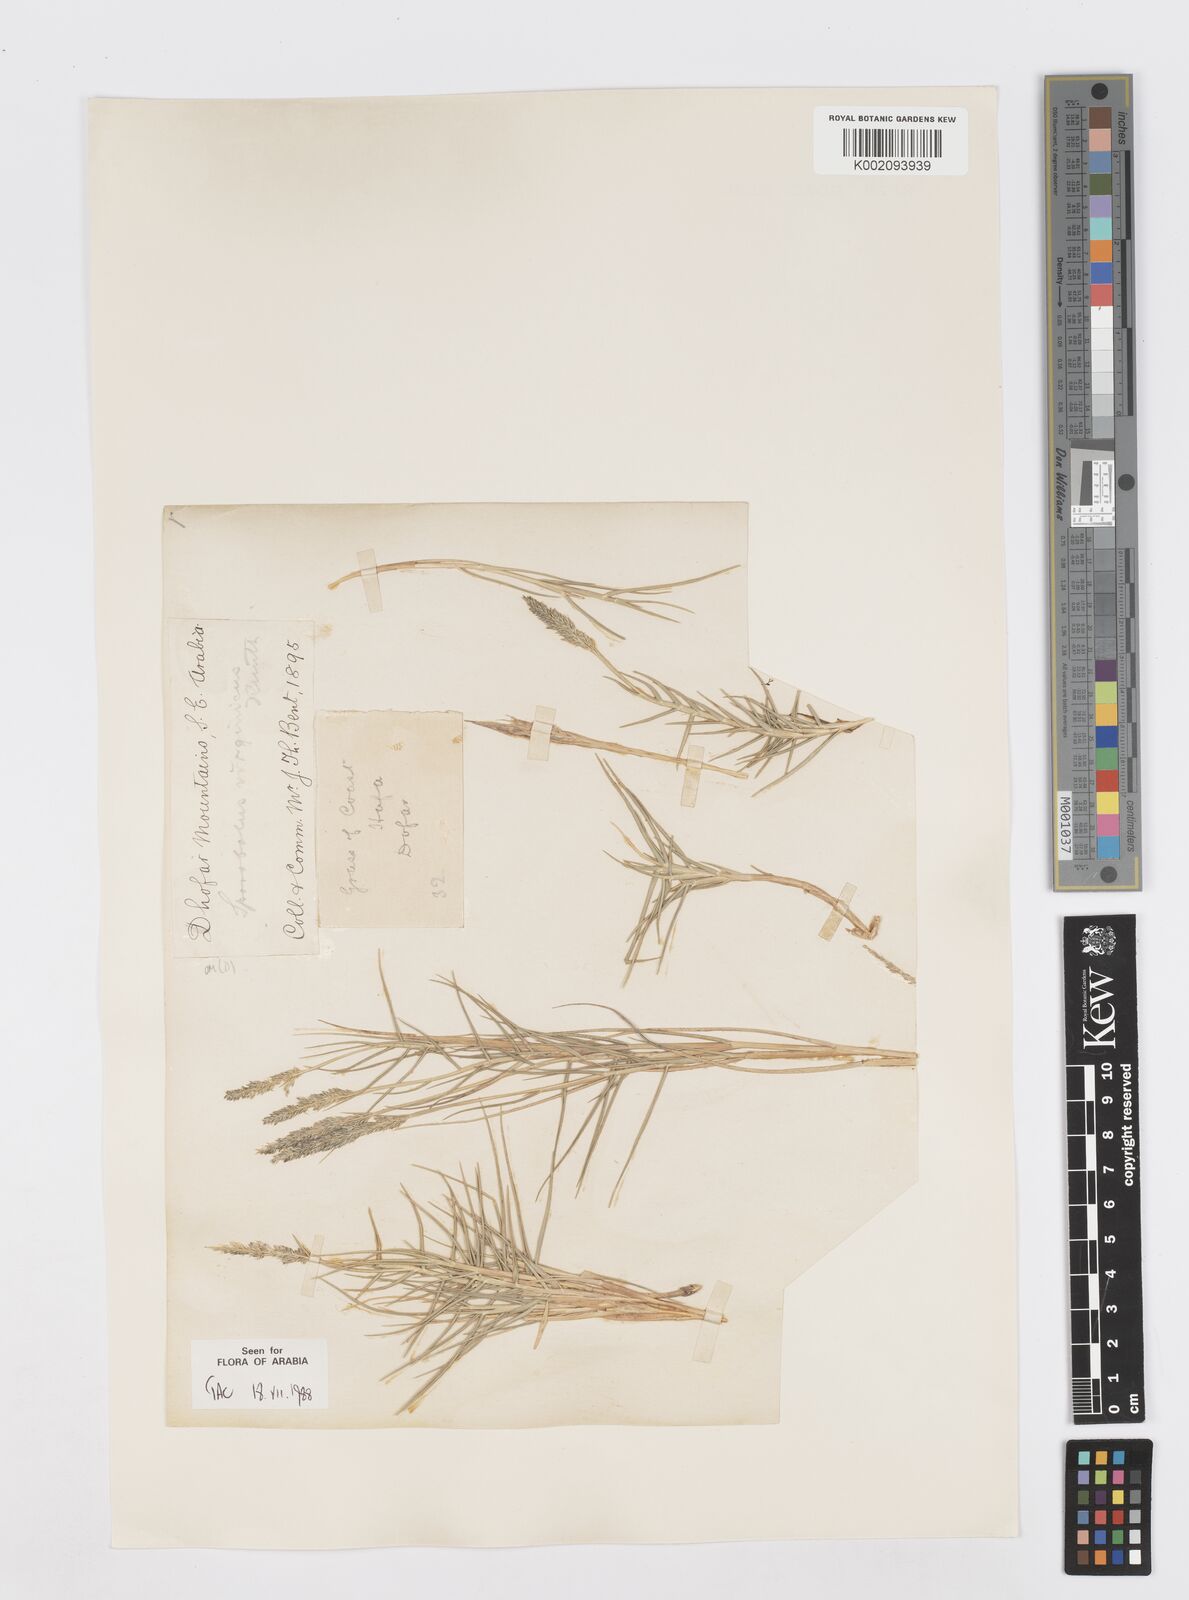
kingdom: Plantae
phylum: Tracheophyta
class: Liliopsida
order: Poales
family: Poaceae
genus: Sporobolus
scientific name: Sporobolus virginicus
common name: Beach dropseed
